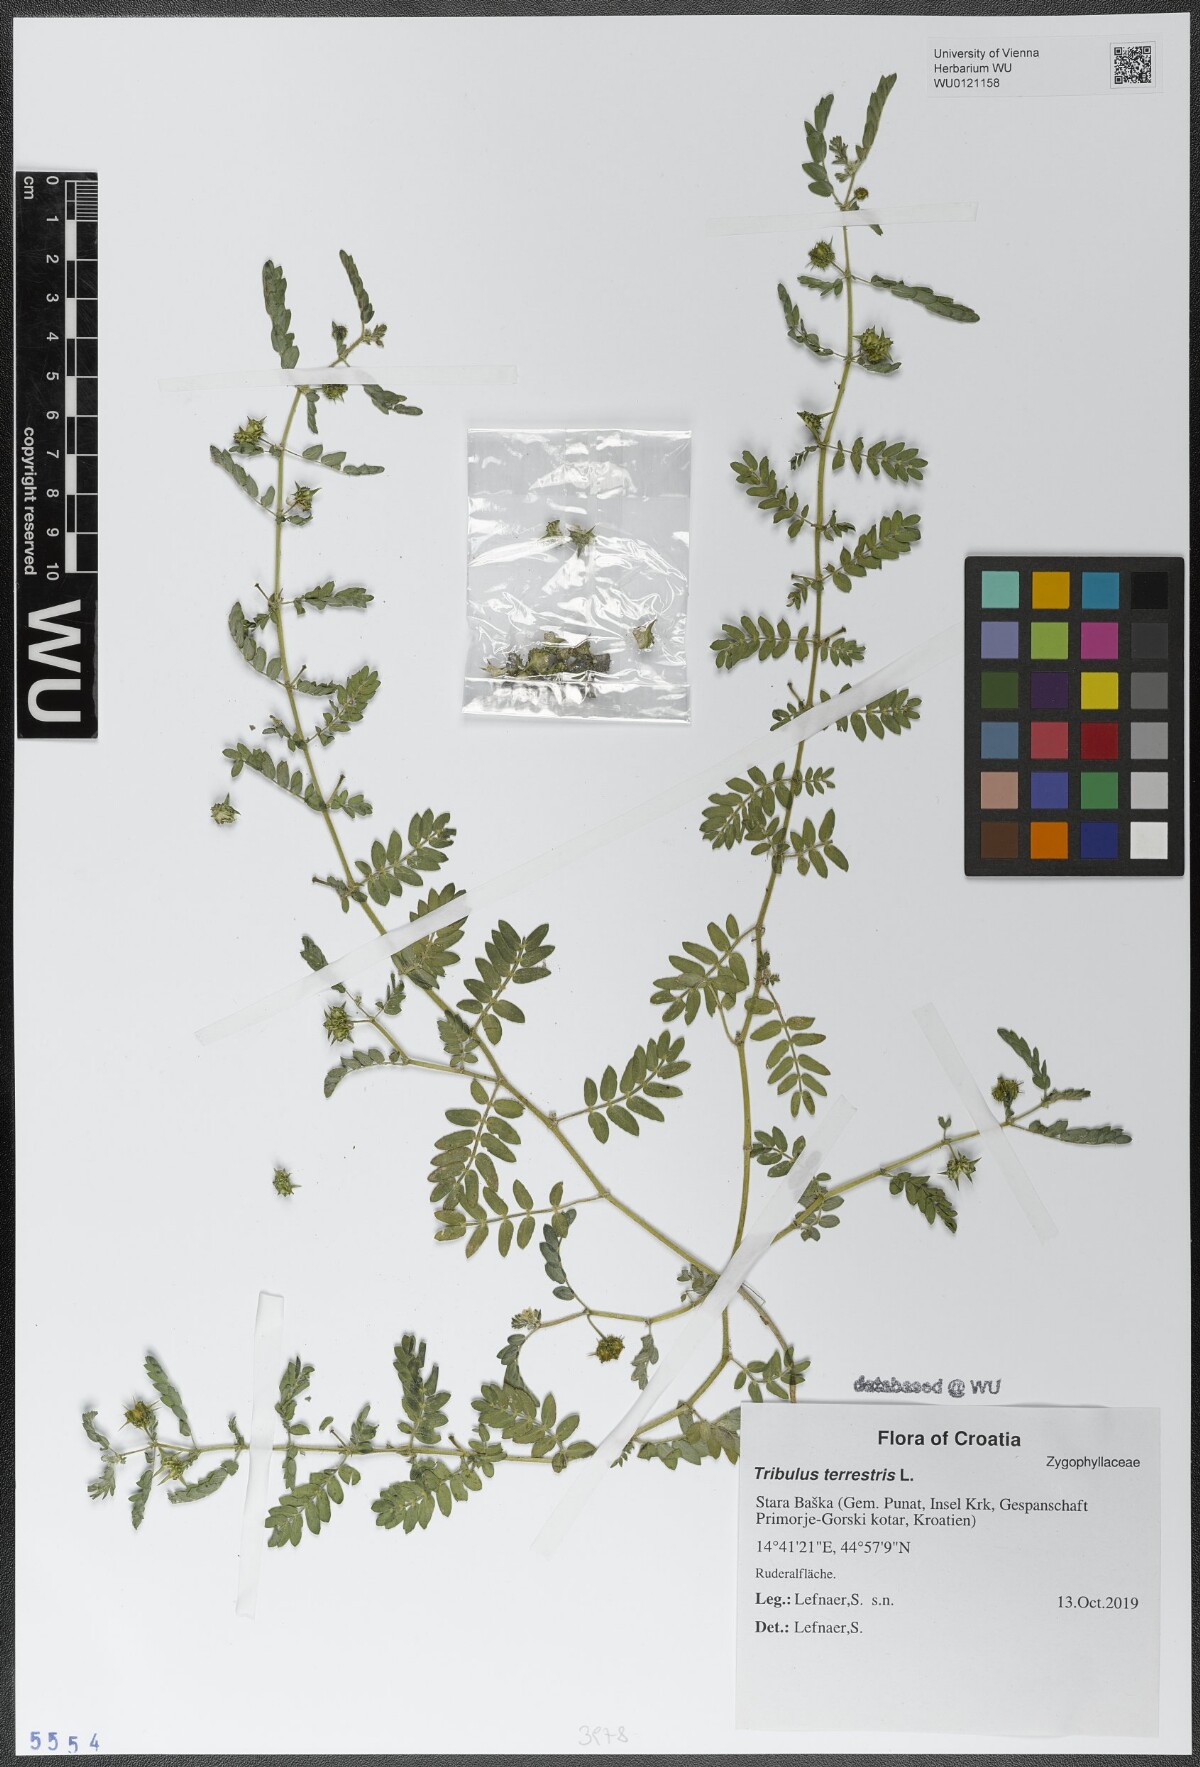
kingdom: Plantae
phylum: Tracheophyta
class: Magnoliopsida
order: Zygophyllales
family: Zygophyllaceae
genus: Tribulus
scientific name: Tribulus terrestris
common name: Puncturevine
